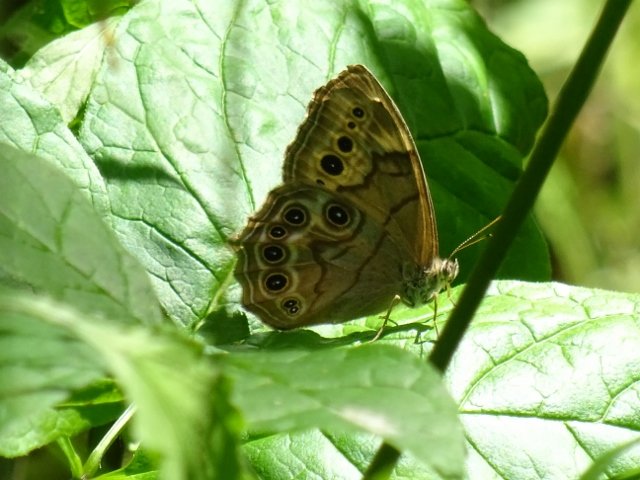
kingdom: Animalia
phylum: Arthropoda
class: Insecta
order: Lepidoptera
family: Nymphalidae
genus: Lethe
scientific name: Lethe anthedon
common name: Northern Pearly-Eye
